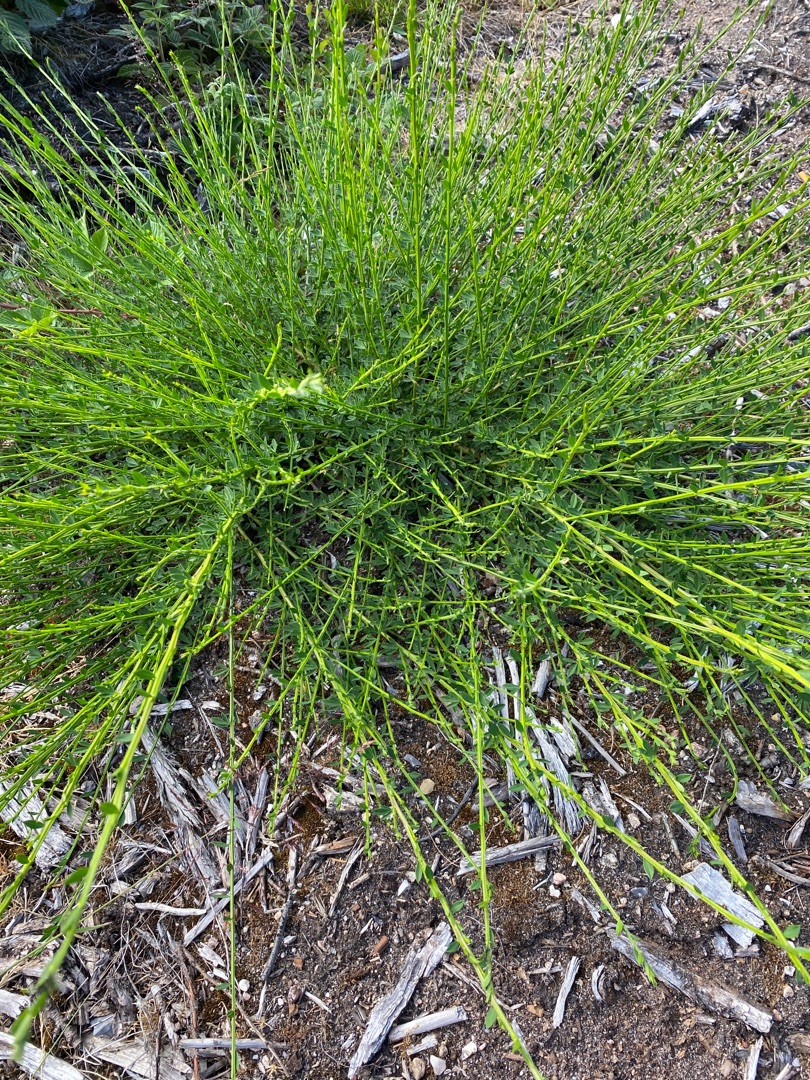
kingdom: Plantae
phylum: Tracheophyta
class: Magnoliopsida
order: Fabales
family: Fabaceae
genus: Cytisus
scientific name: Cytisus scoparius
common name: Almindelig gyvel
